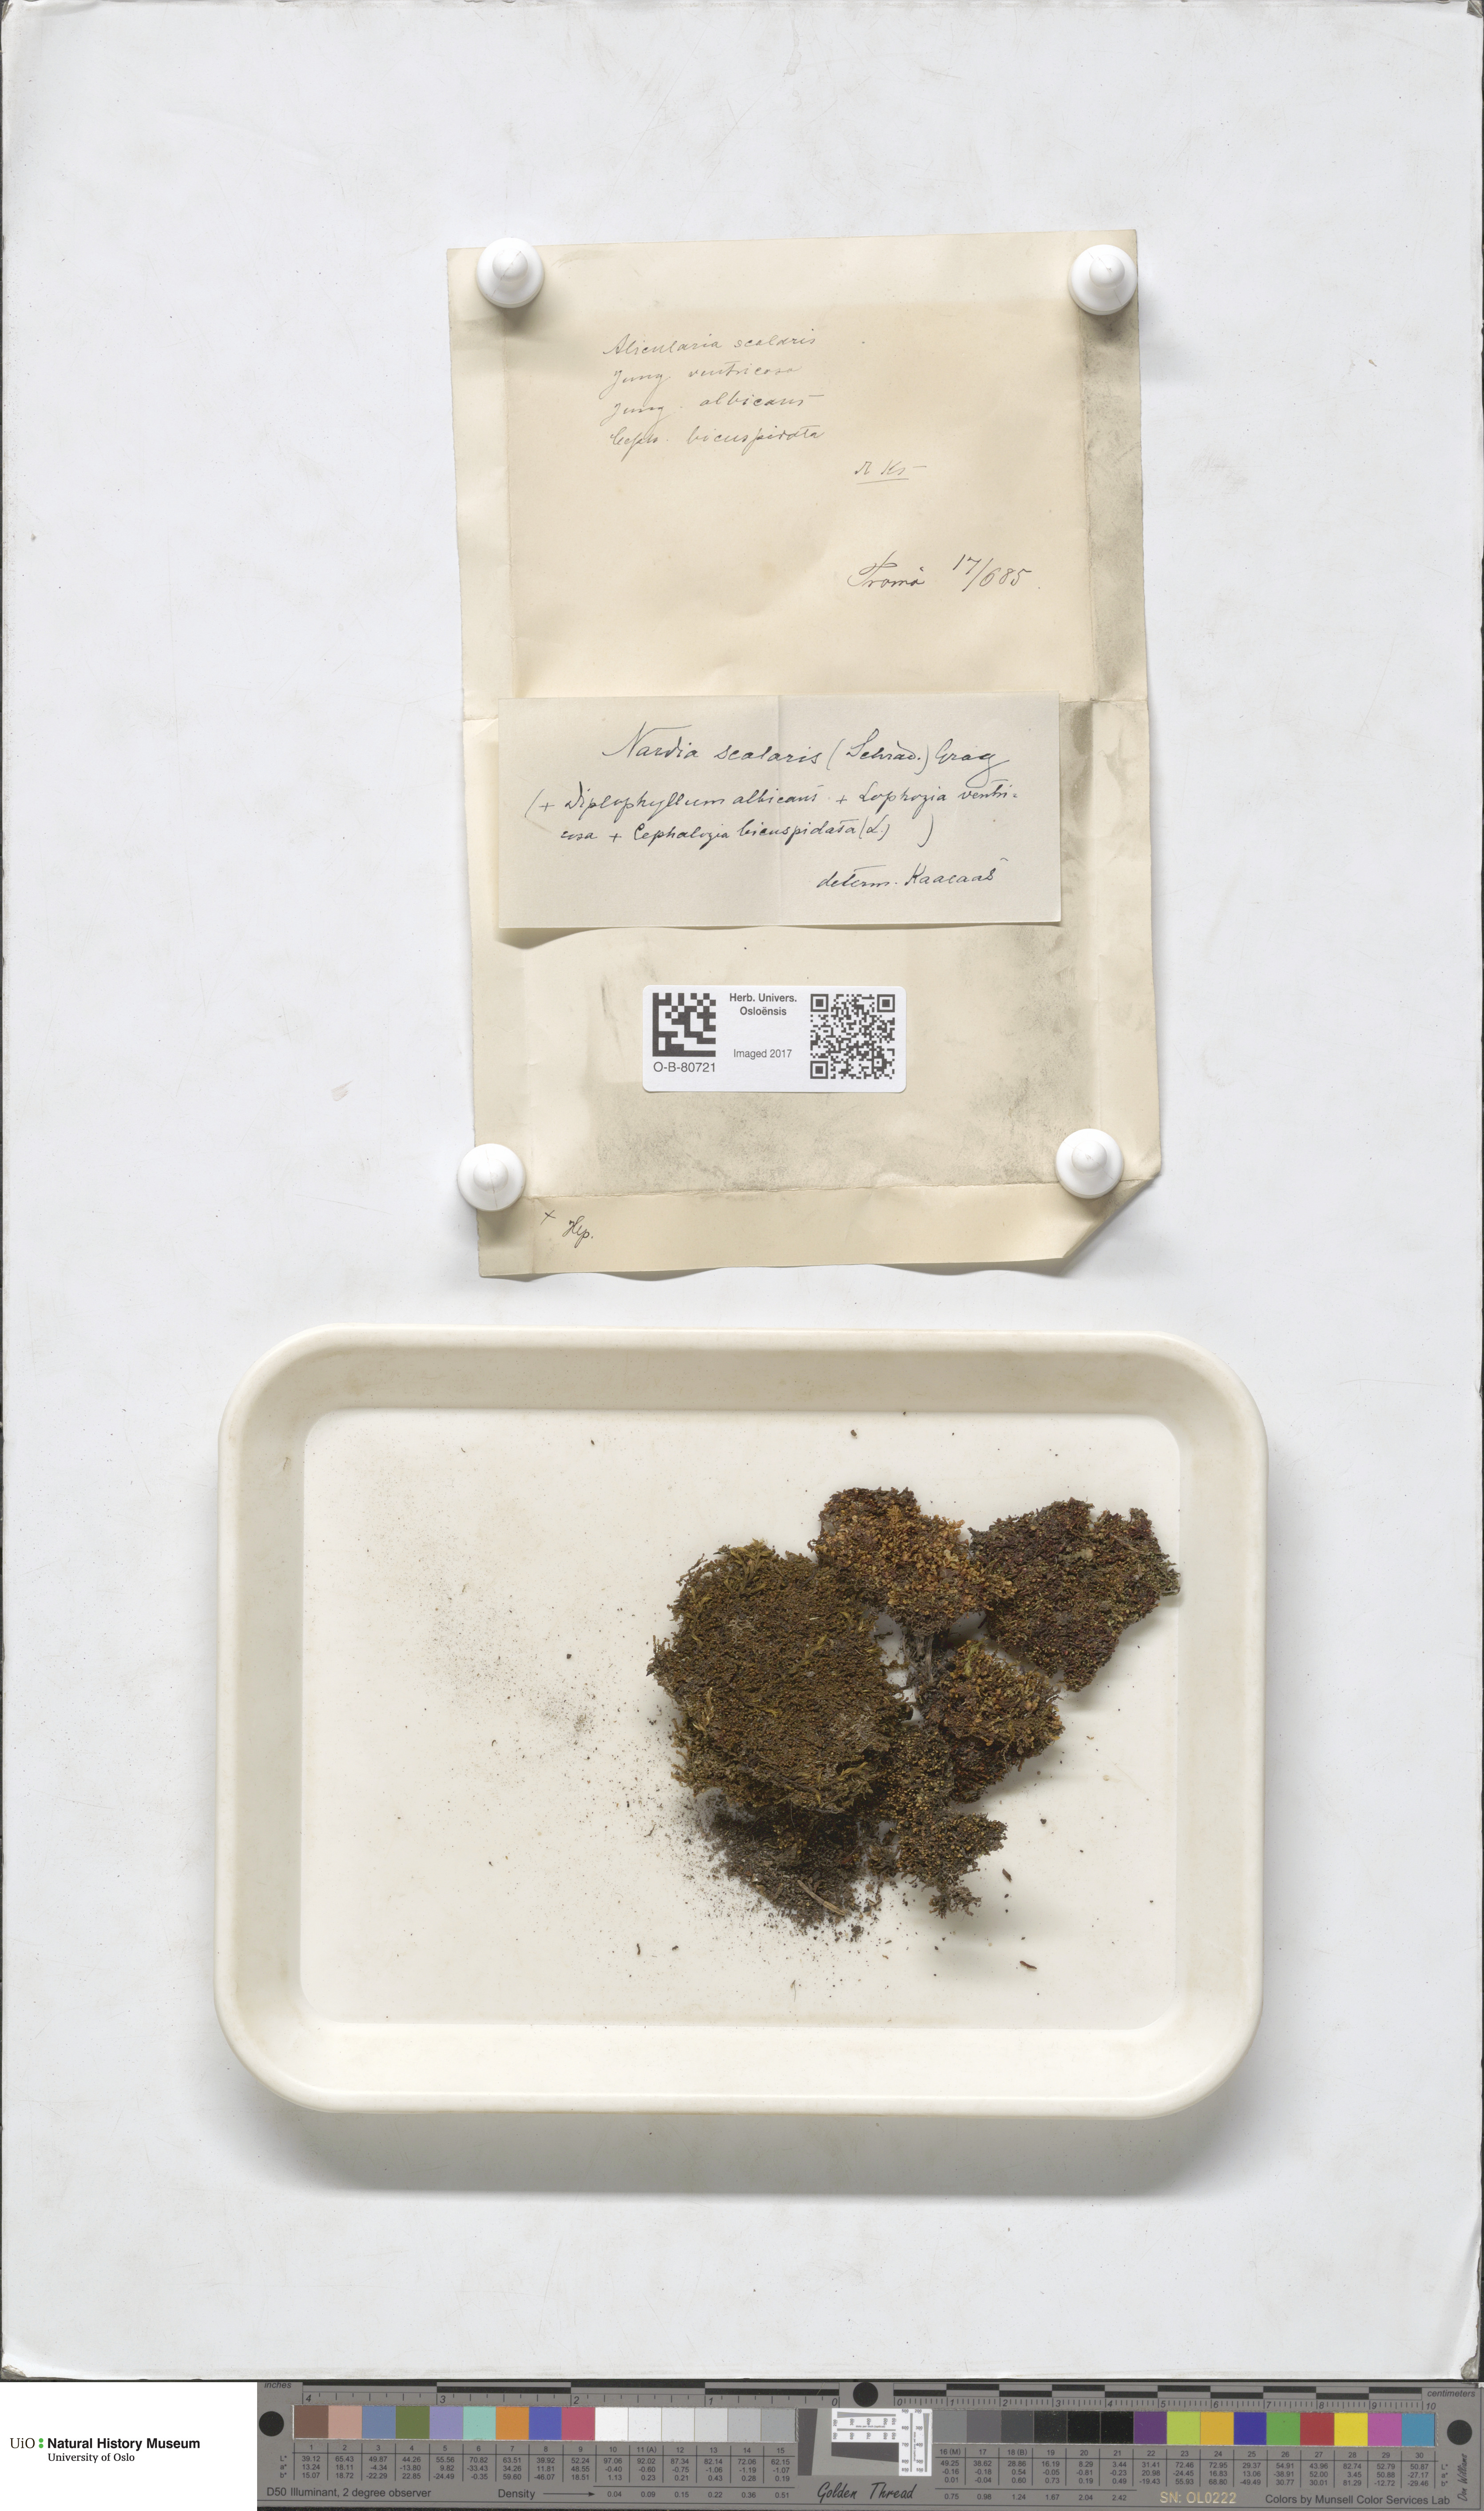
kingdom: Plantae
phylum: Marchantiophyta
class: Jungermanniopsida
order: Jungermanniales
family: Gymnomitriaceae
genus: Nardia
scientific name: Nardia scalaris
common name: Ladder flapwort
